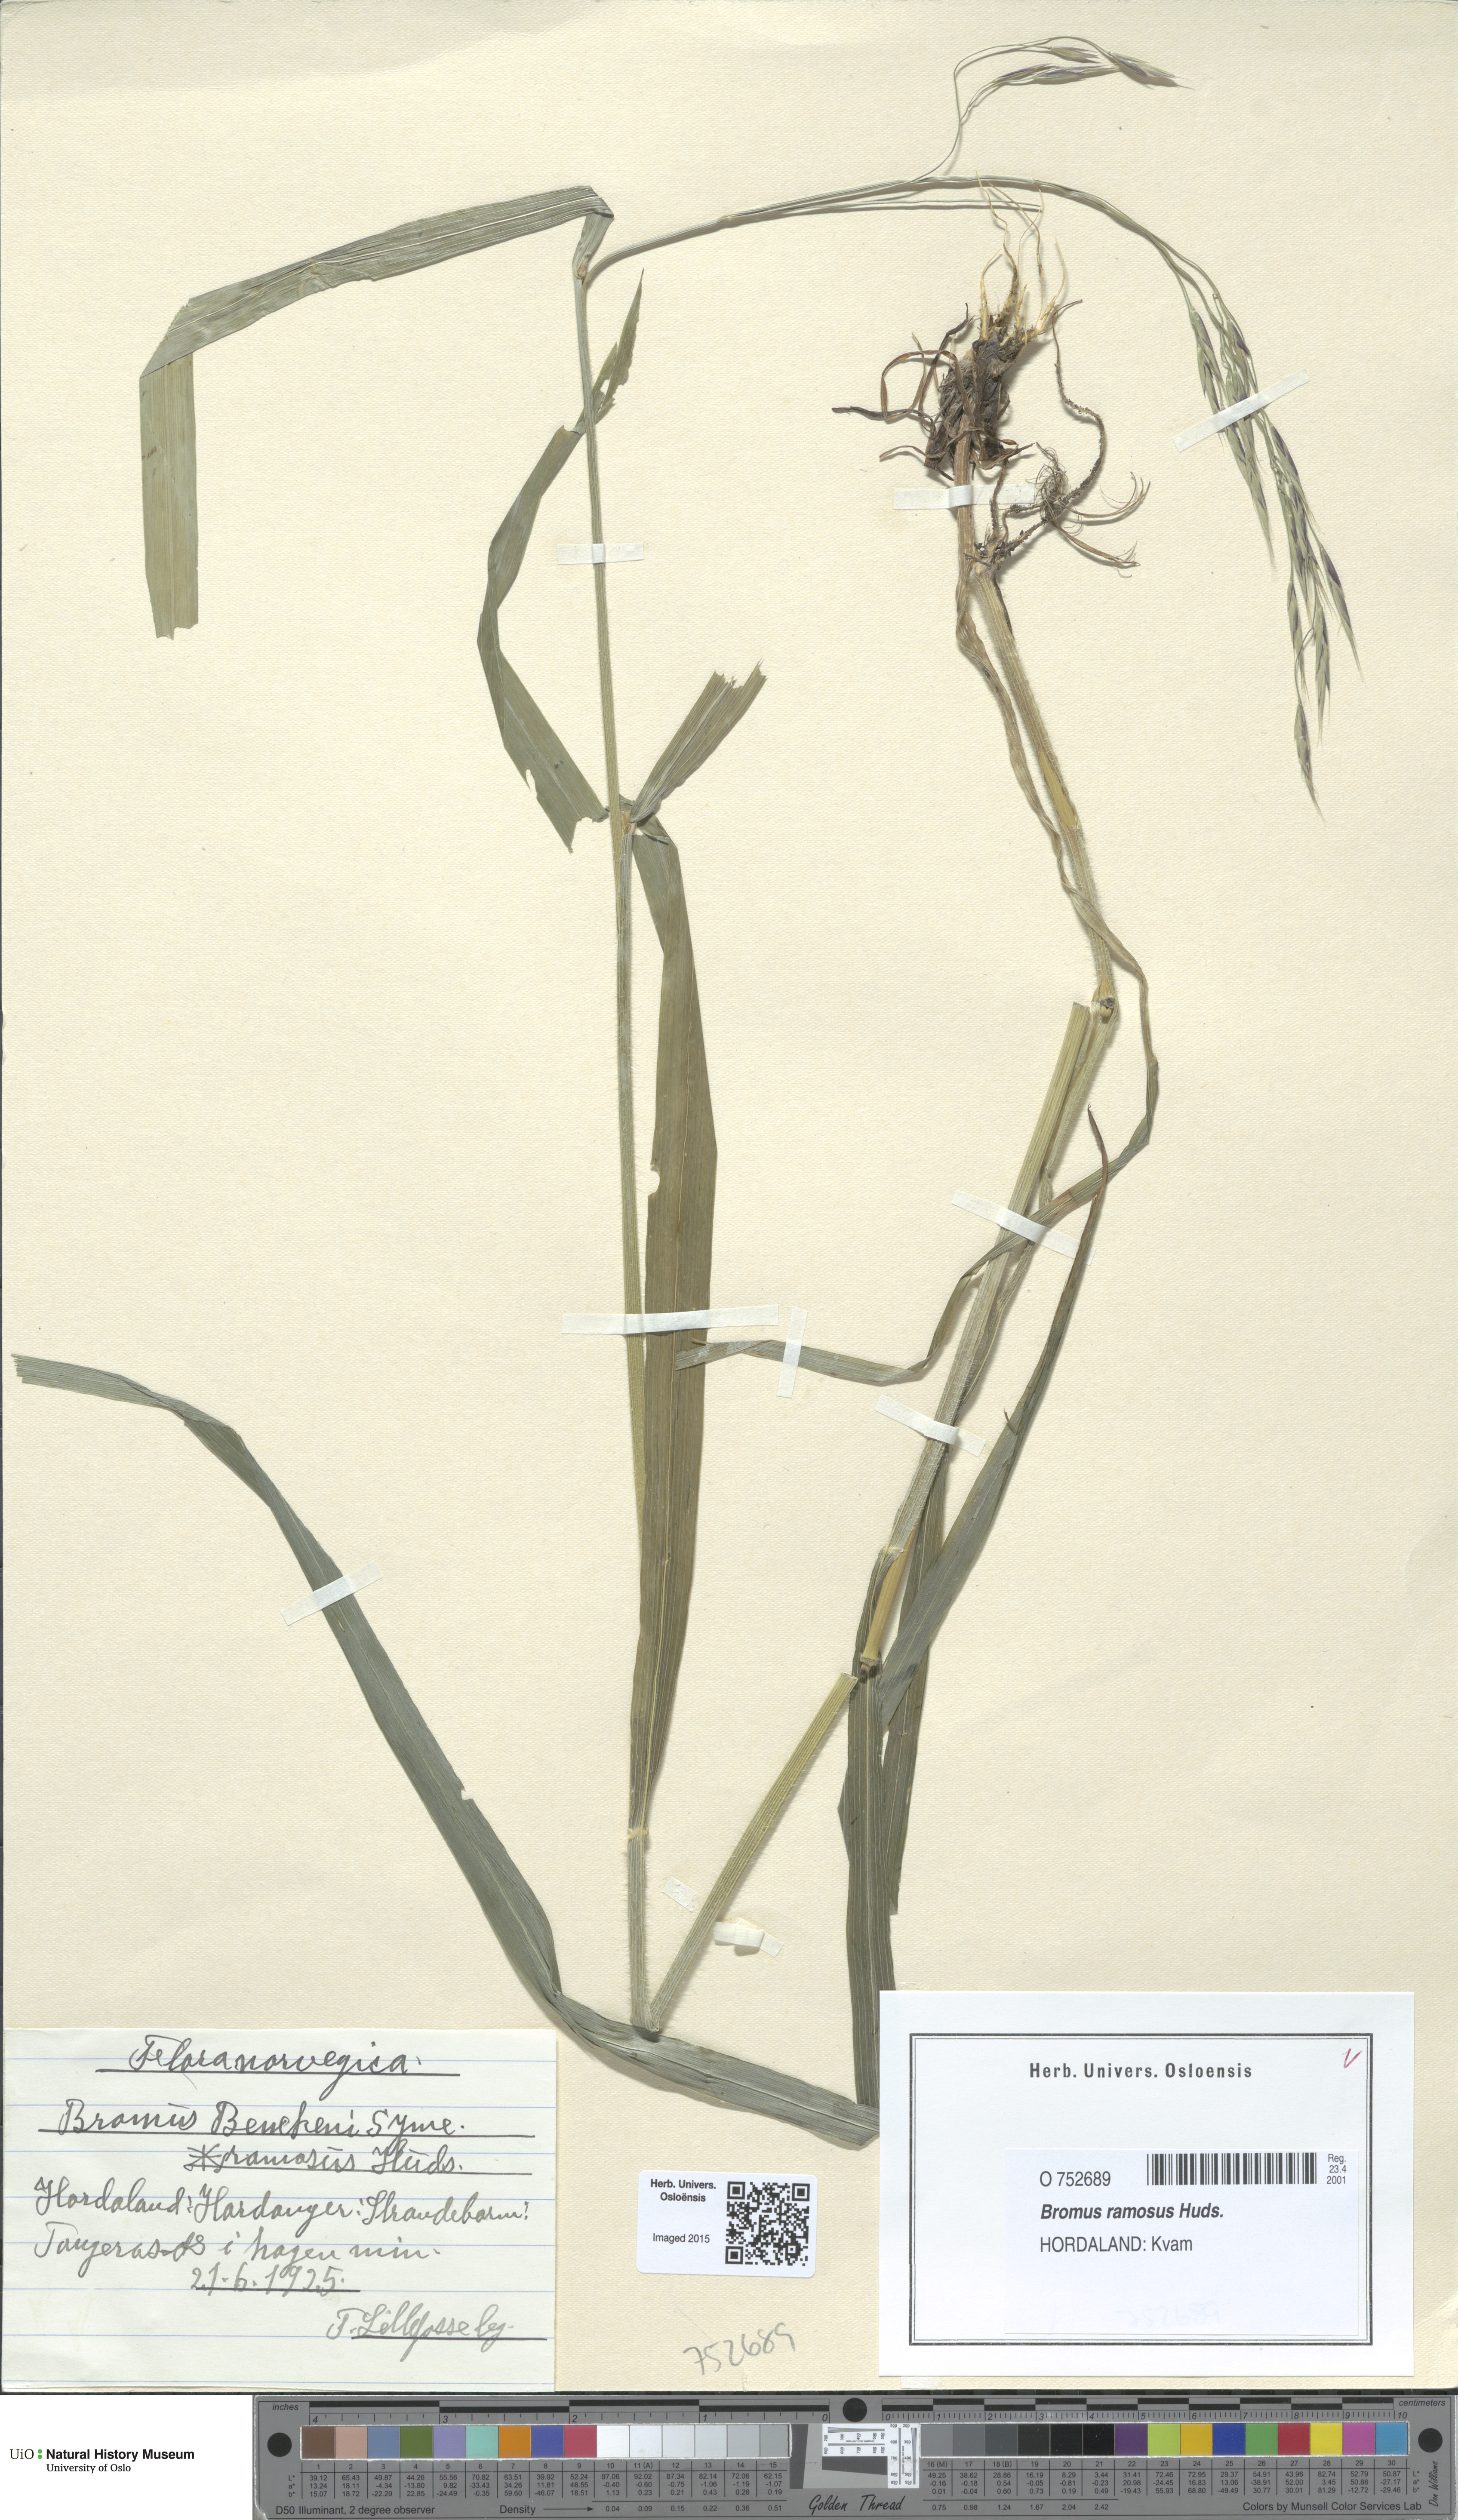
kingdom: Plantae
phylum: Tracheophyta
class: Liliopsida
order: Poales
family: Poaceae
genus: Bromus
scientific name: Bromus ramosus
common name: Hairy brome
